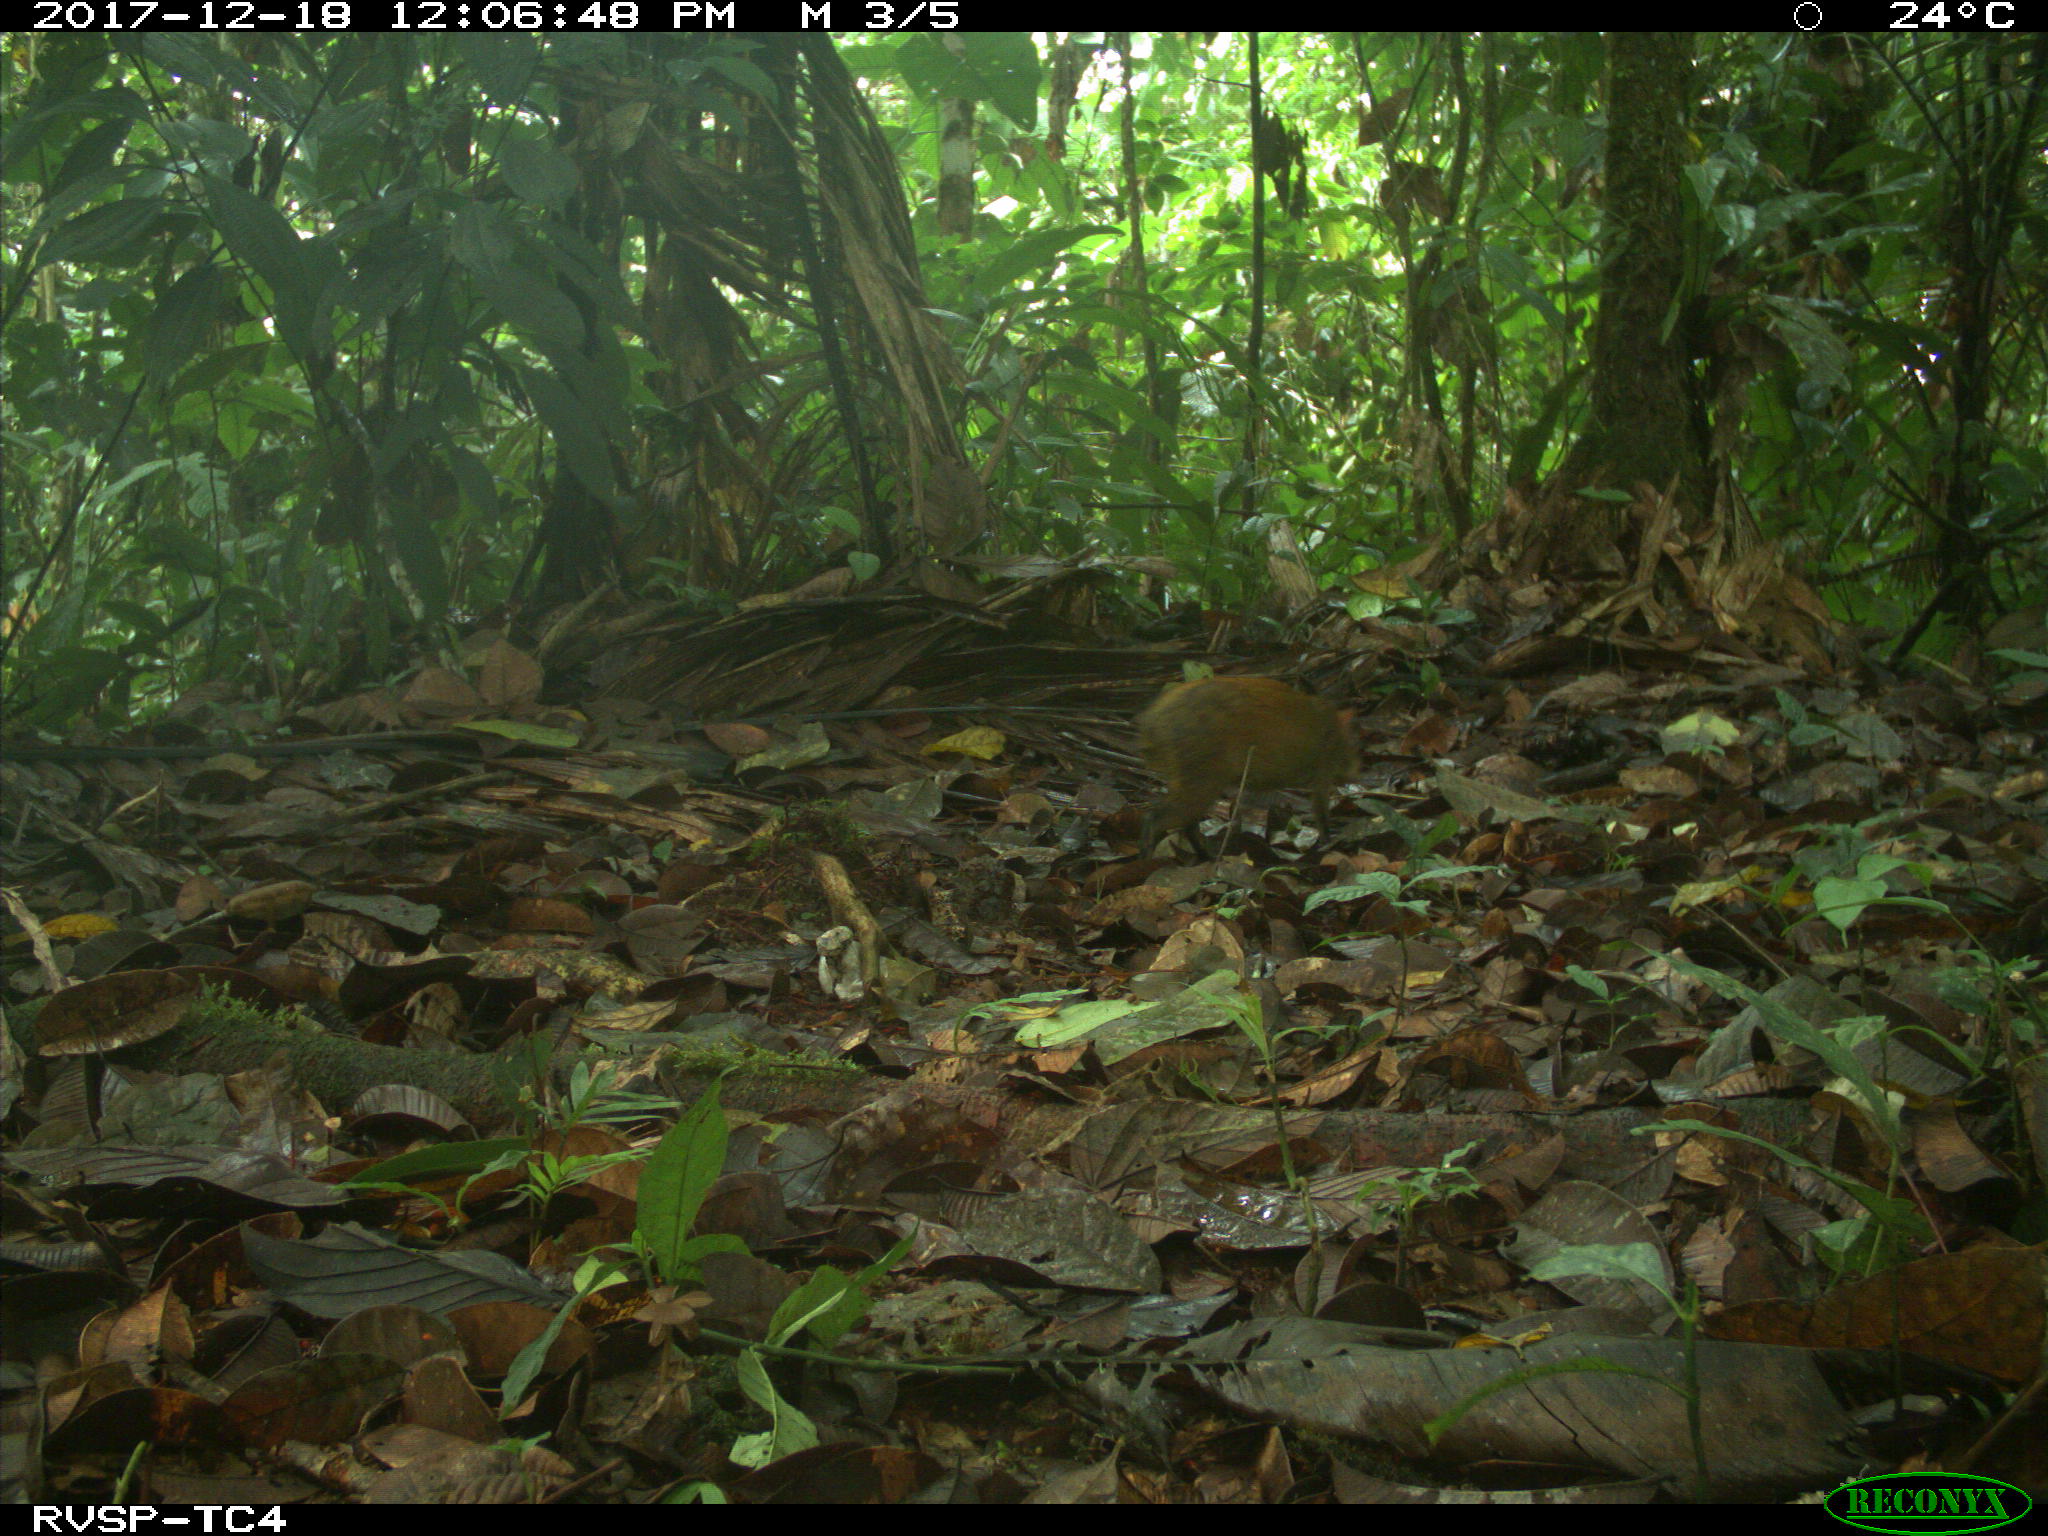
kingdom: Animalia
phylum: Chordata
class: Mammalia
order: Rodentia
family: Dasyproctidae
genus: Dasyprocta
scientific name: Dasyprocta punctata
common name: Central american agouti
